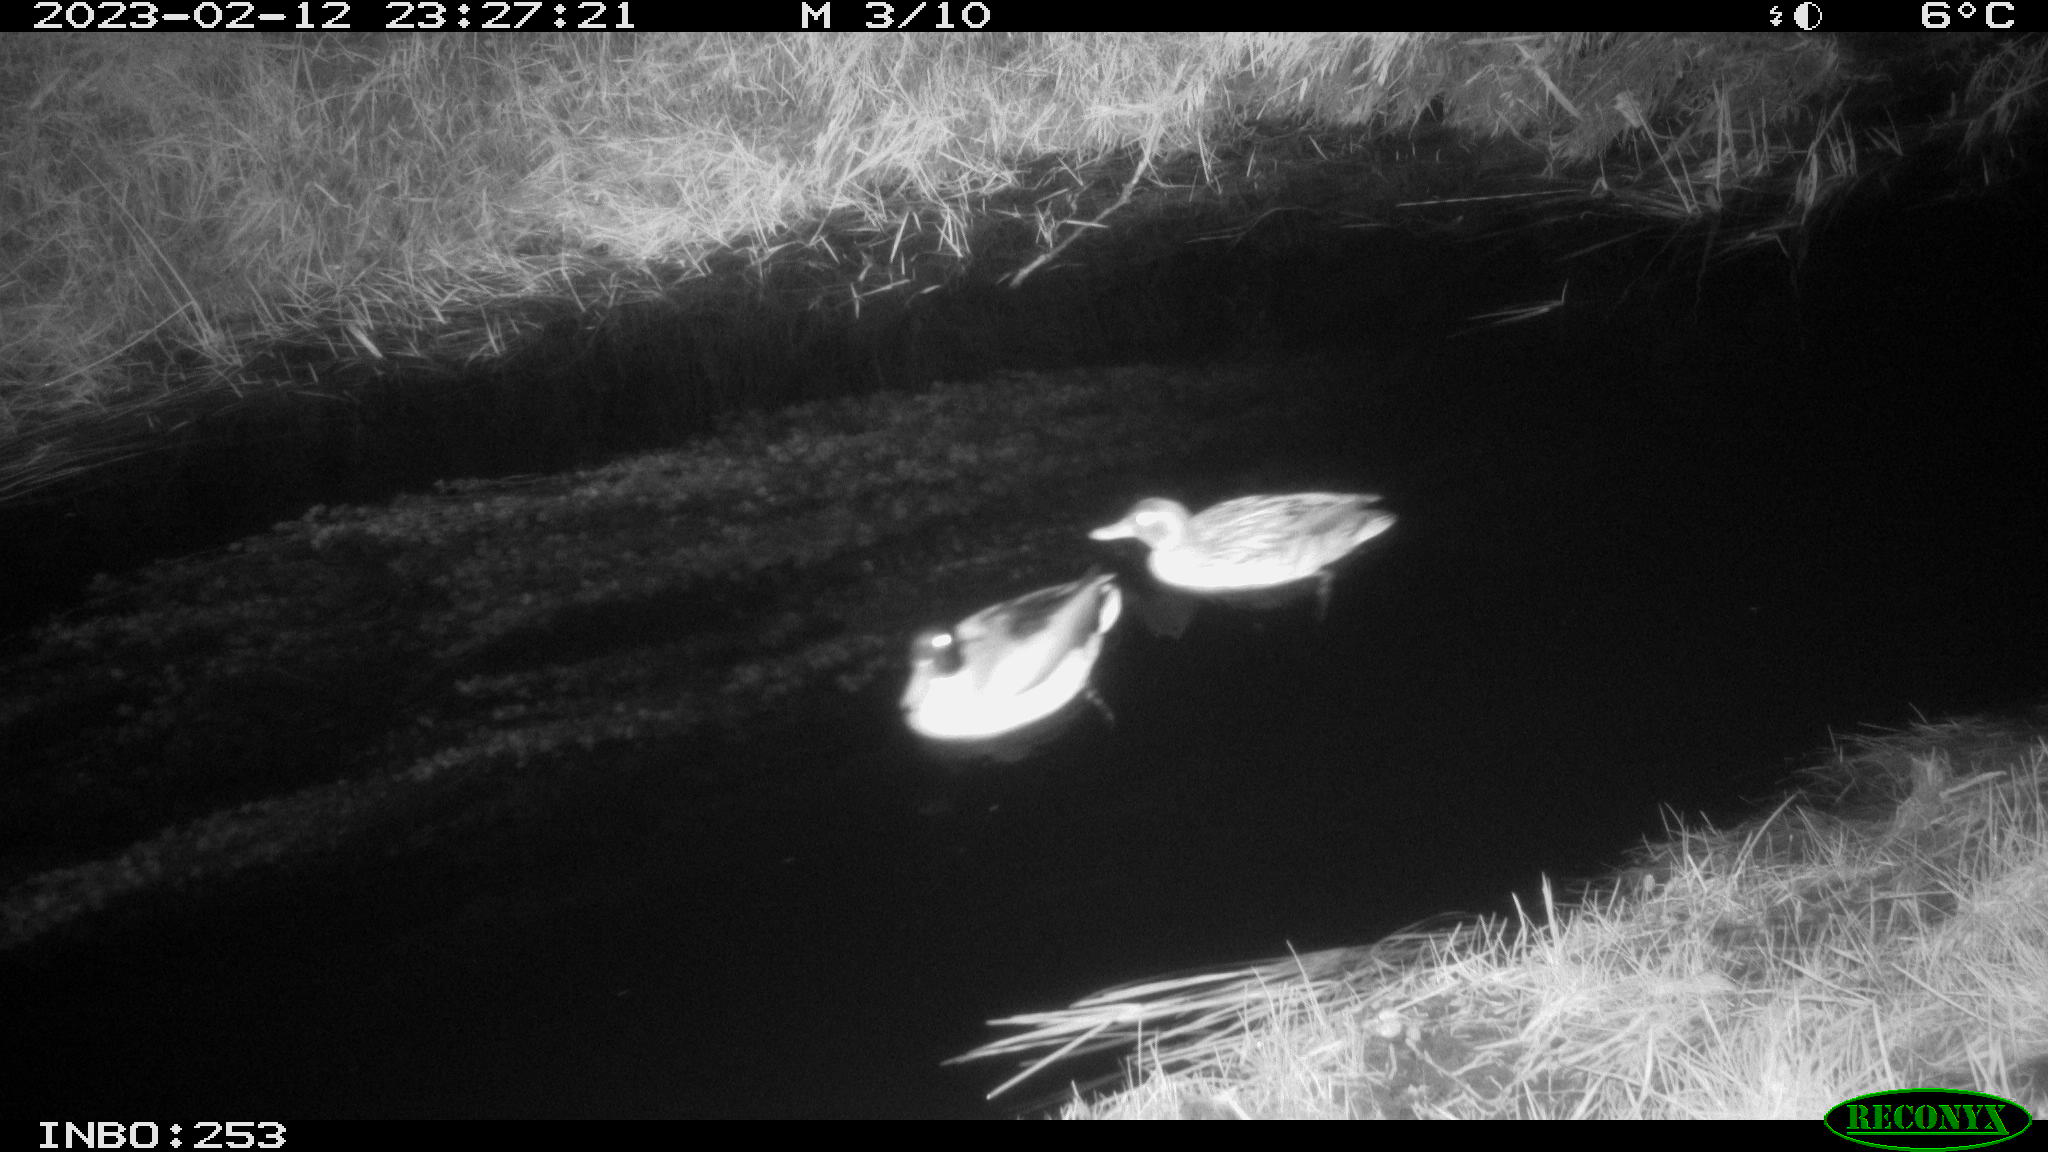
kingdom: Animalia
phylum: Chordata
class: Aves
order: Anseriformes
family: Anatidae
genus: Anas
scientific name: Anas
